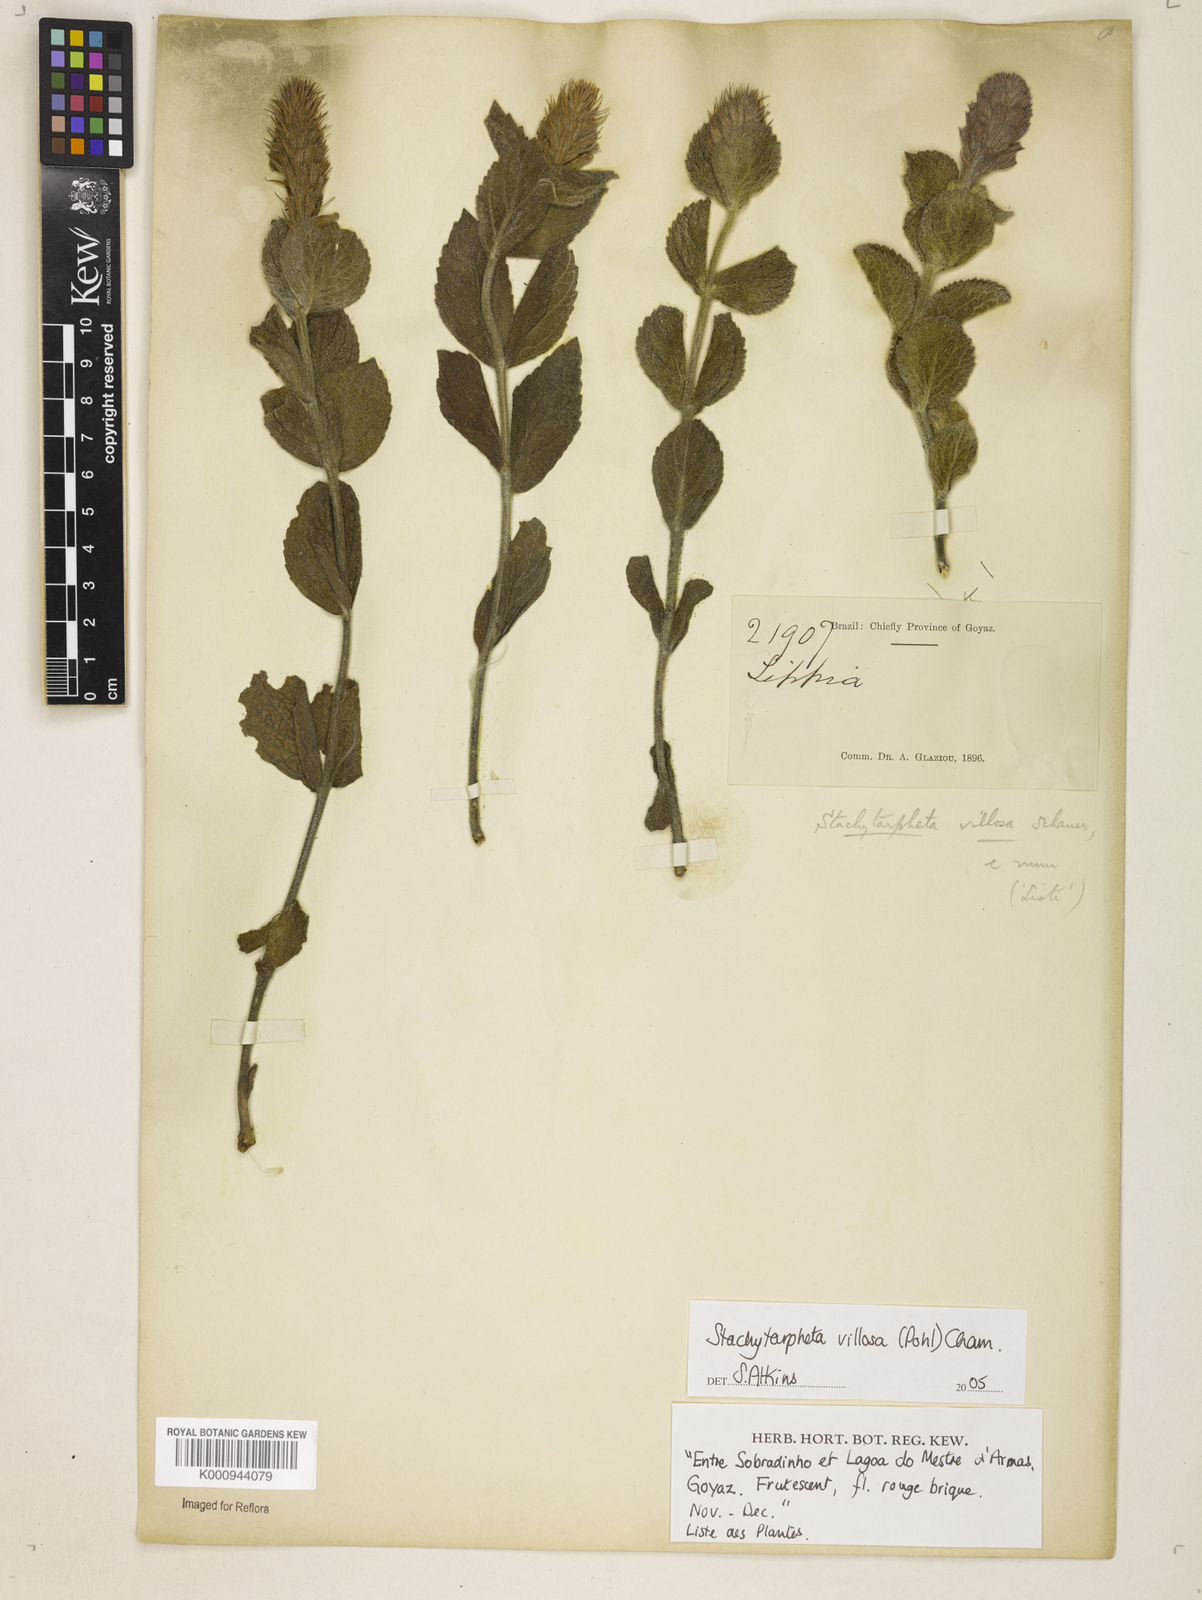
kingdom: Plantae
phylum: Tracheophyta
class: Magnoliopsida
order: Lamiales
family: Verbenaceae
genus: Stachytarpheta
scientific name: Stachytarpheta villosa
